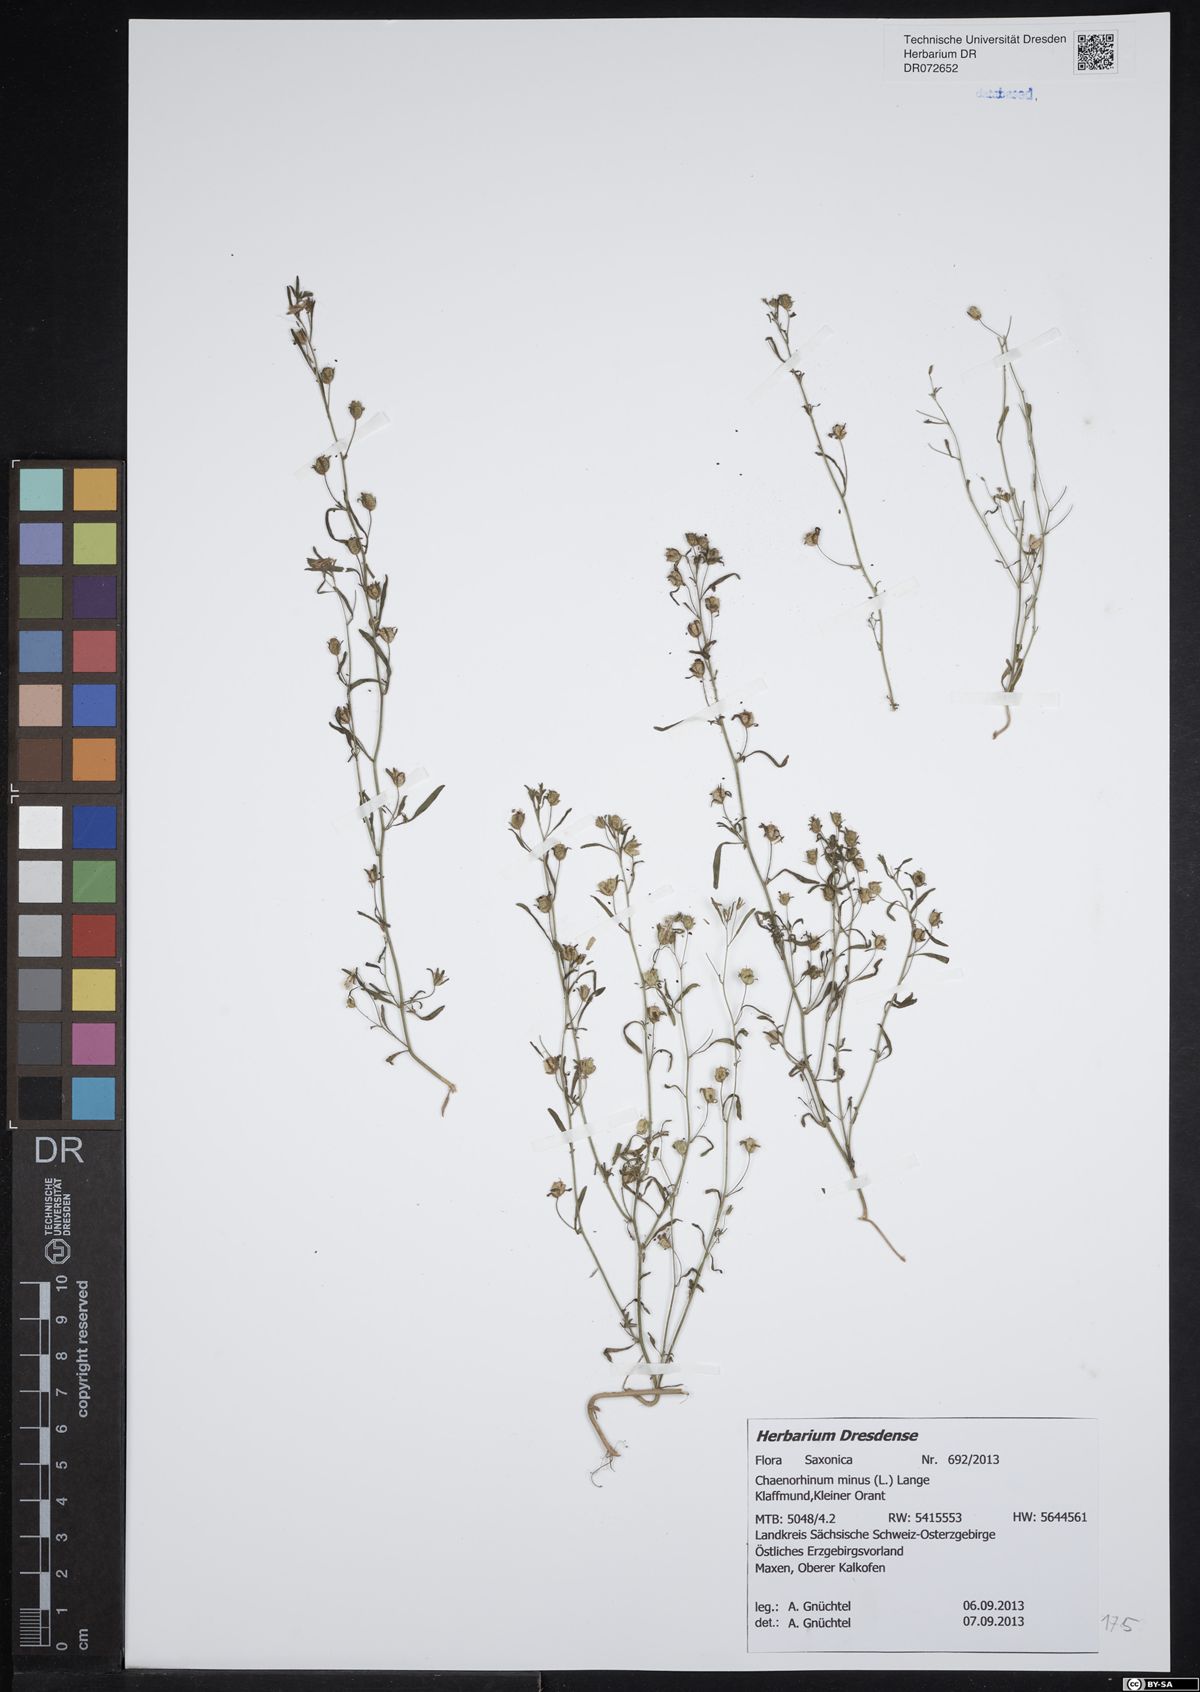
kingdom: Plantae
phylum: Tracheophyta
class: Magnoliopsida
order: Lamiales
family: Plantaginaceae
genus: Chaenorhinum
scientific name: Chaenorhinum minus
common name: Dwarf snapdragon
